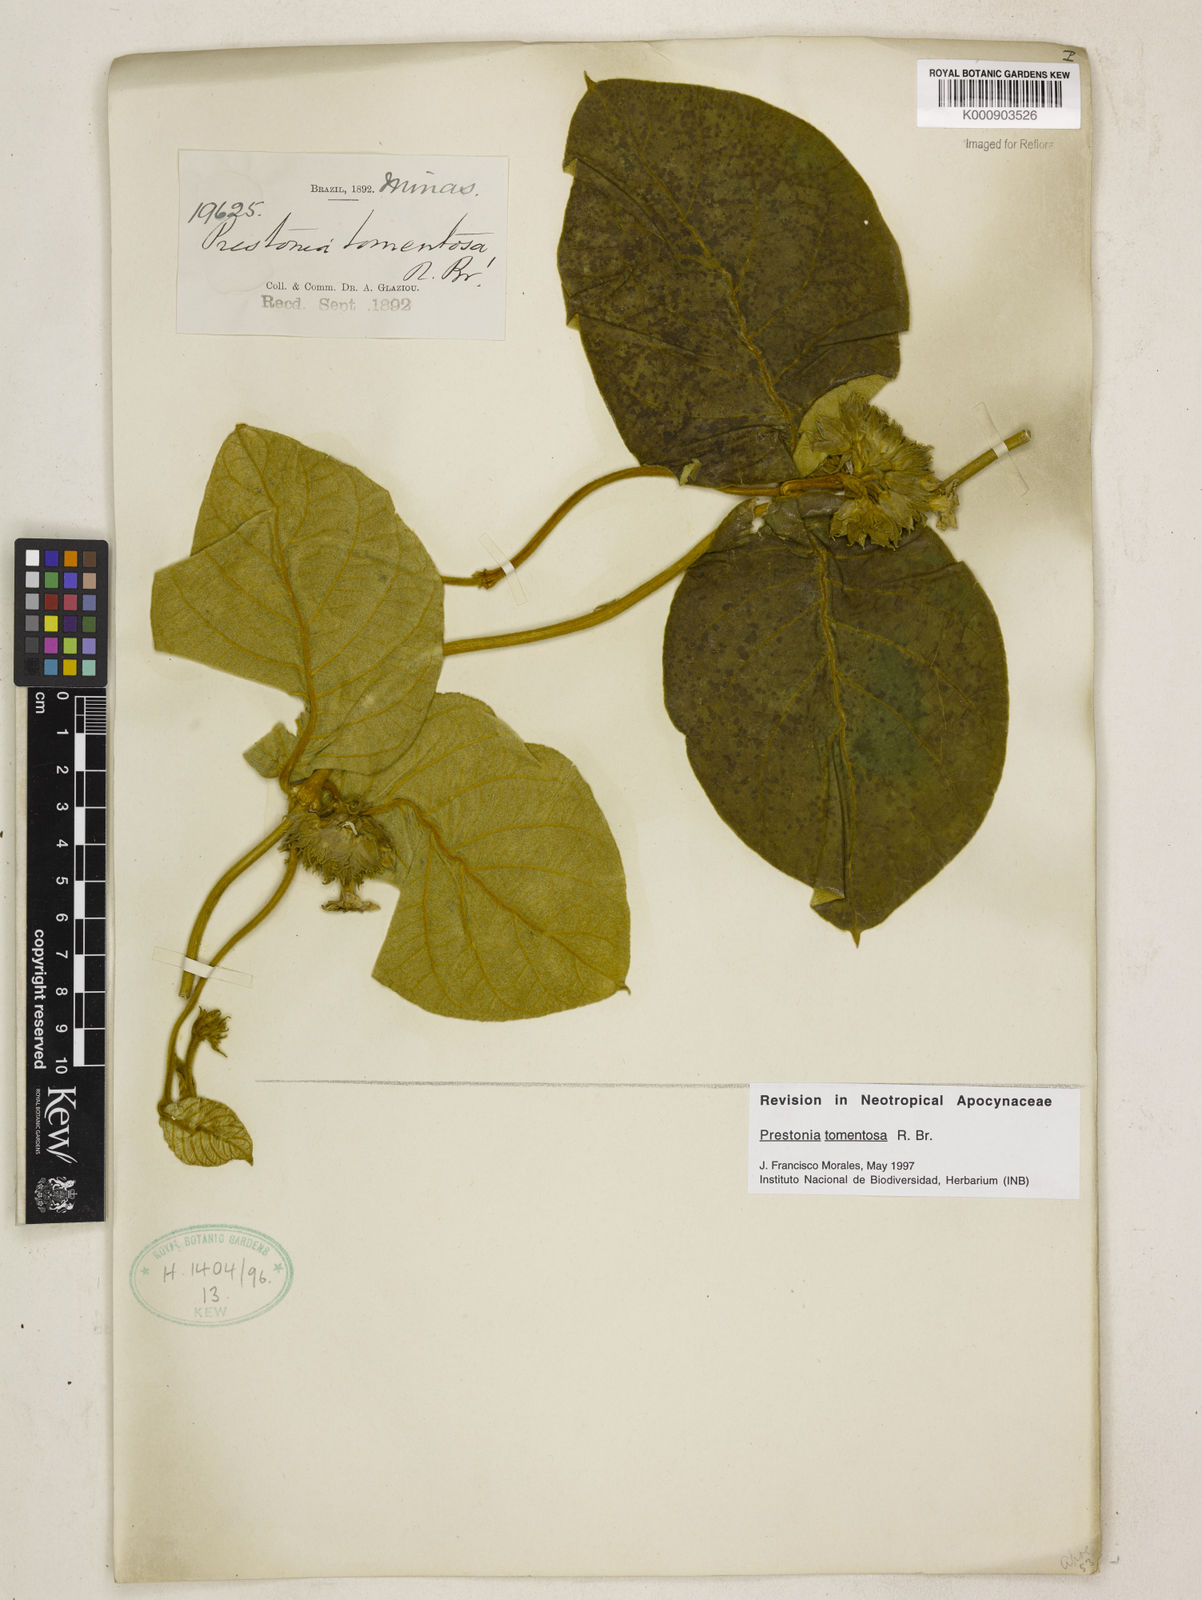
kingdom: Plantae
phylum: Tracheophyta
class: Magnoliopsida
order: Gentianales
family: Apocynaceae
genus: Prestonia
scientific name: Prestonia tomentosa
